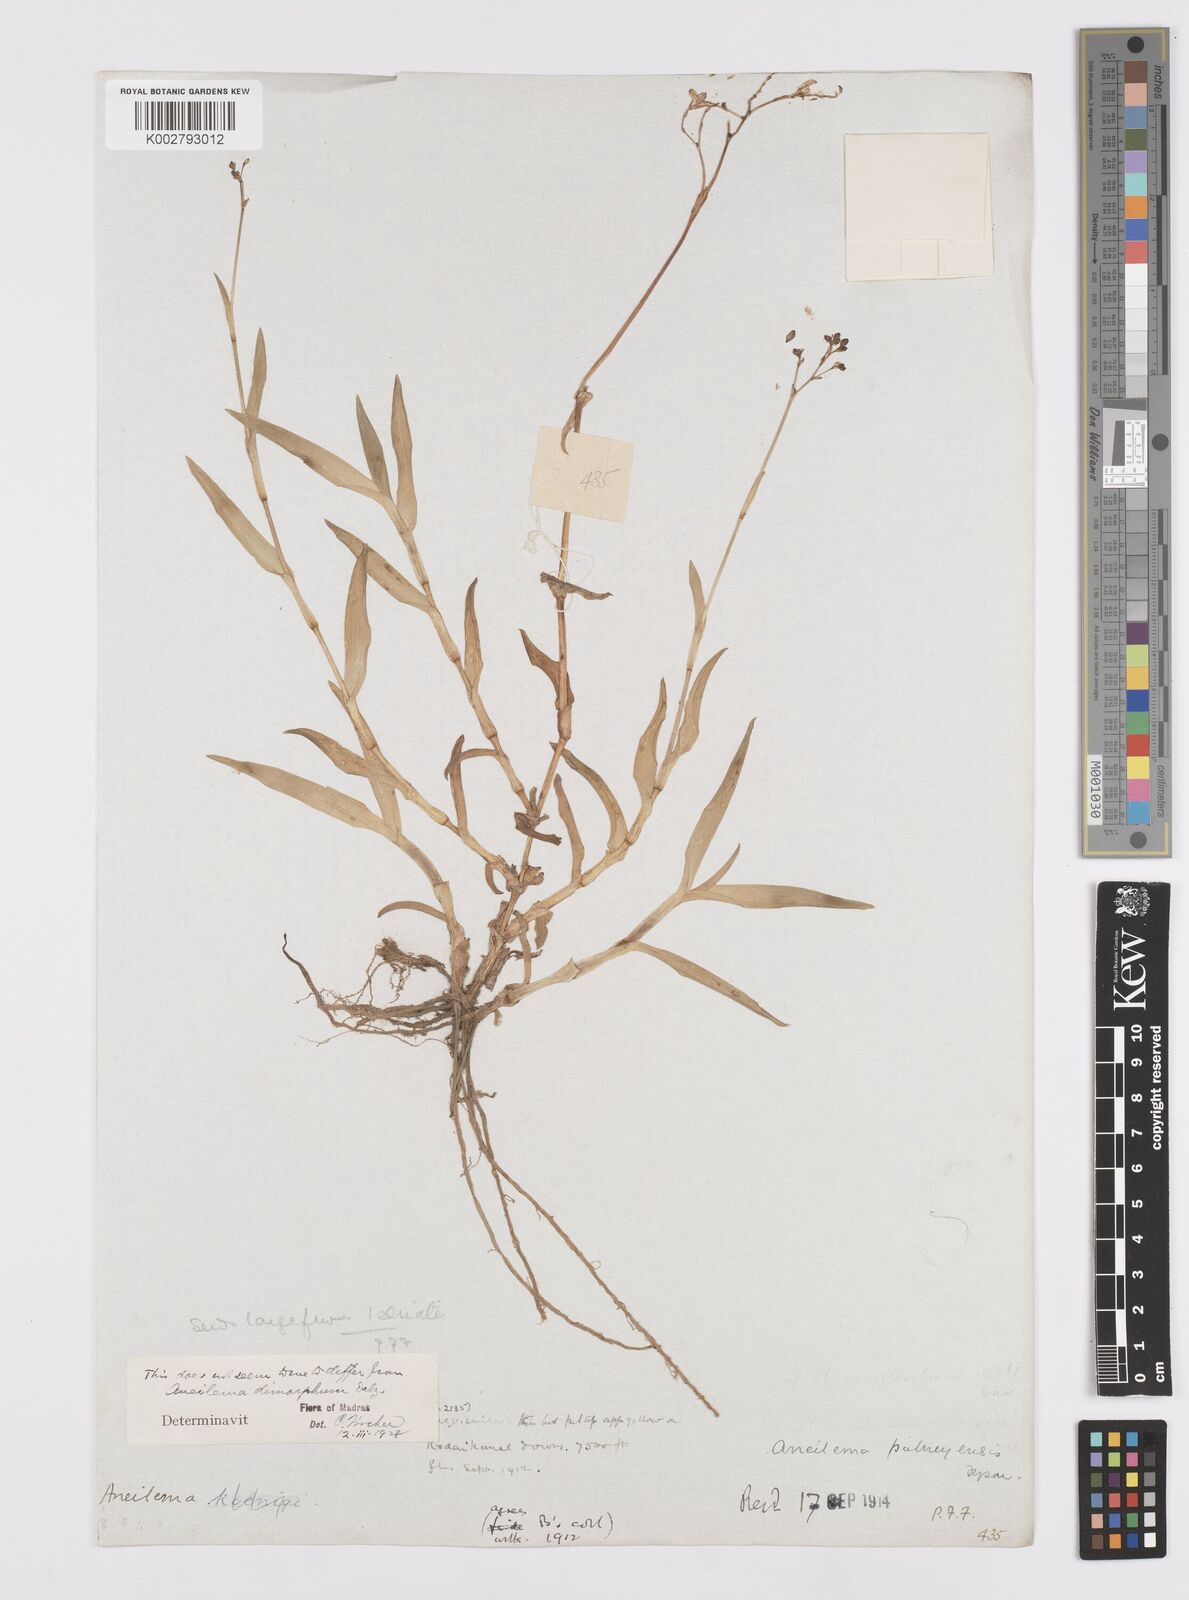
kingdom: Plantae
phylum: Tracheophyta
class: Liliopsida
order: Commelinales
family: Commelinaceae
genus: Murdannia
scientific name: Murdannia
